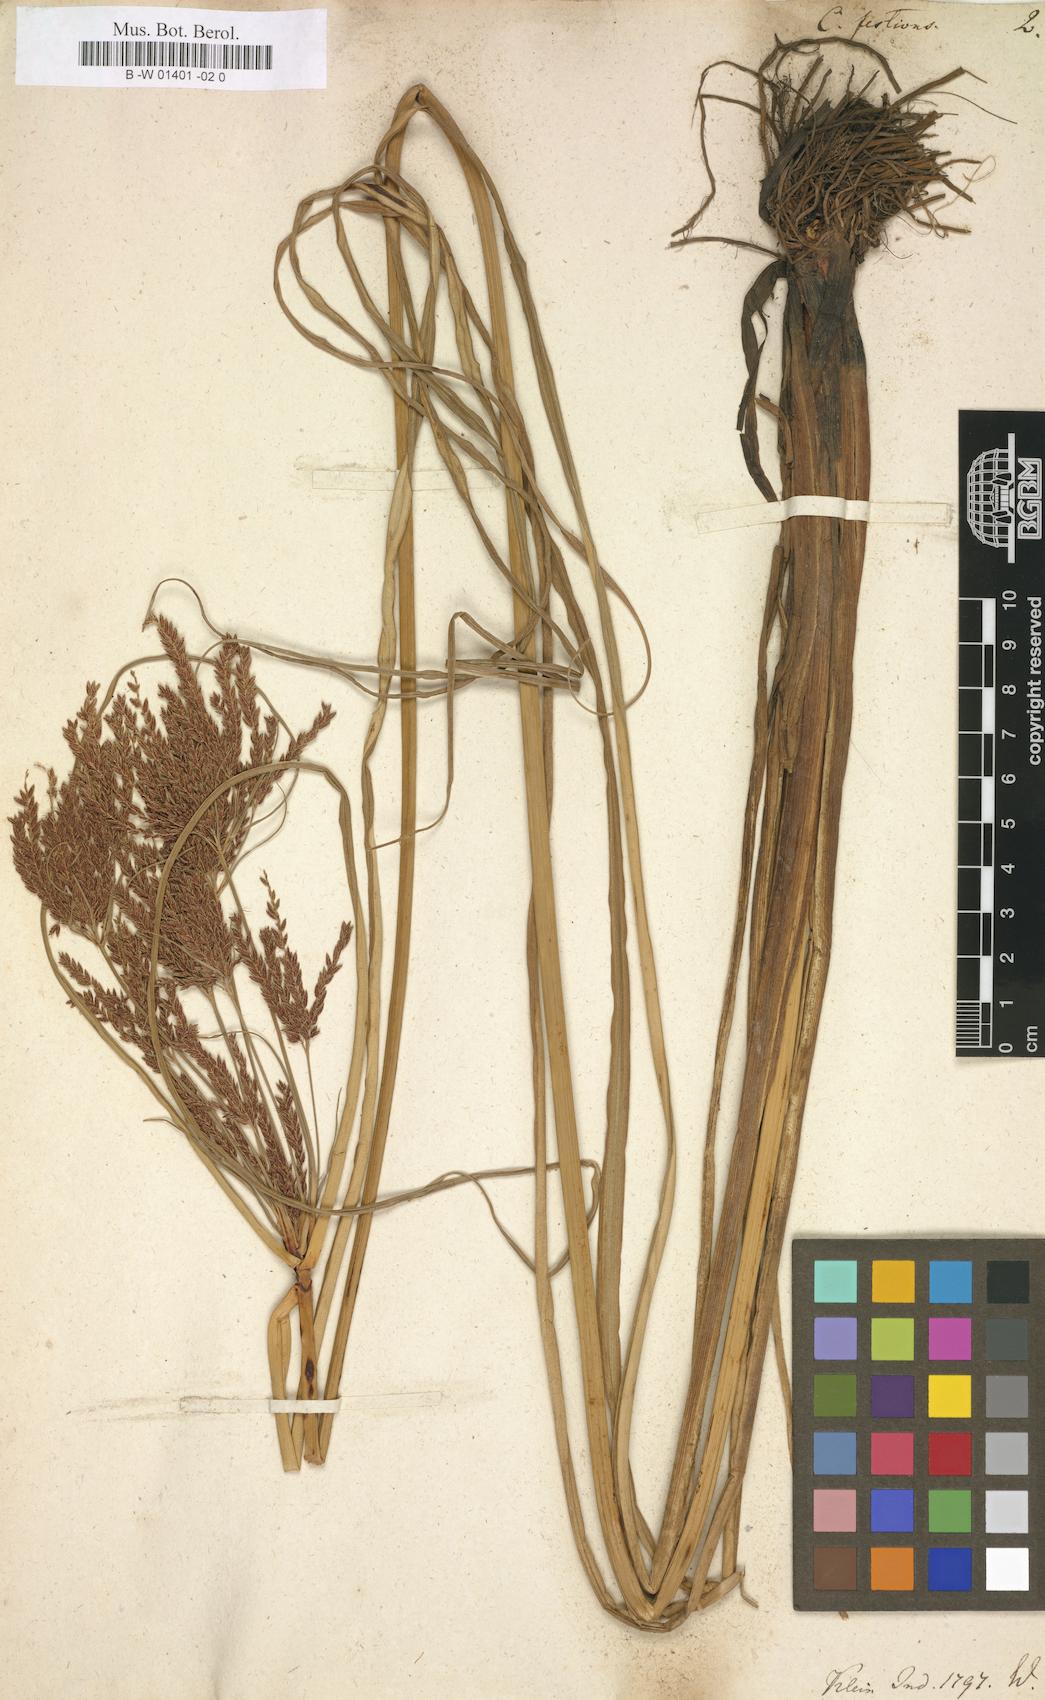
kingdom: Plantae
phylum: Tracheophyta
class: Liliopsida
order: Poales
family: Cyperaceae
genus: Cyperus
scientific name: Cyperus exaltatus
